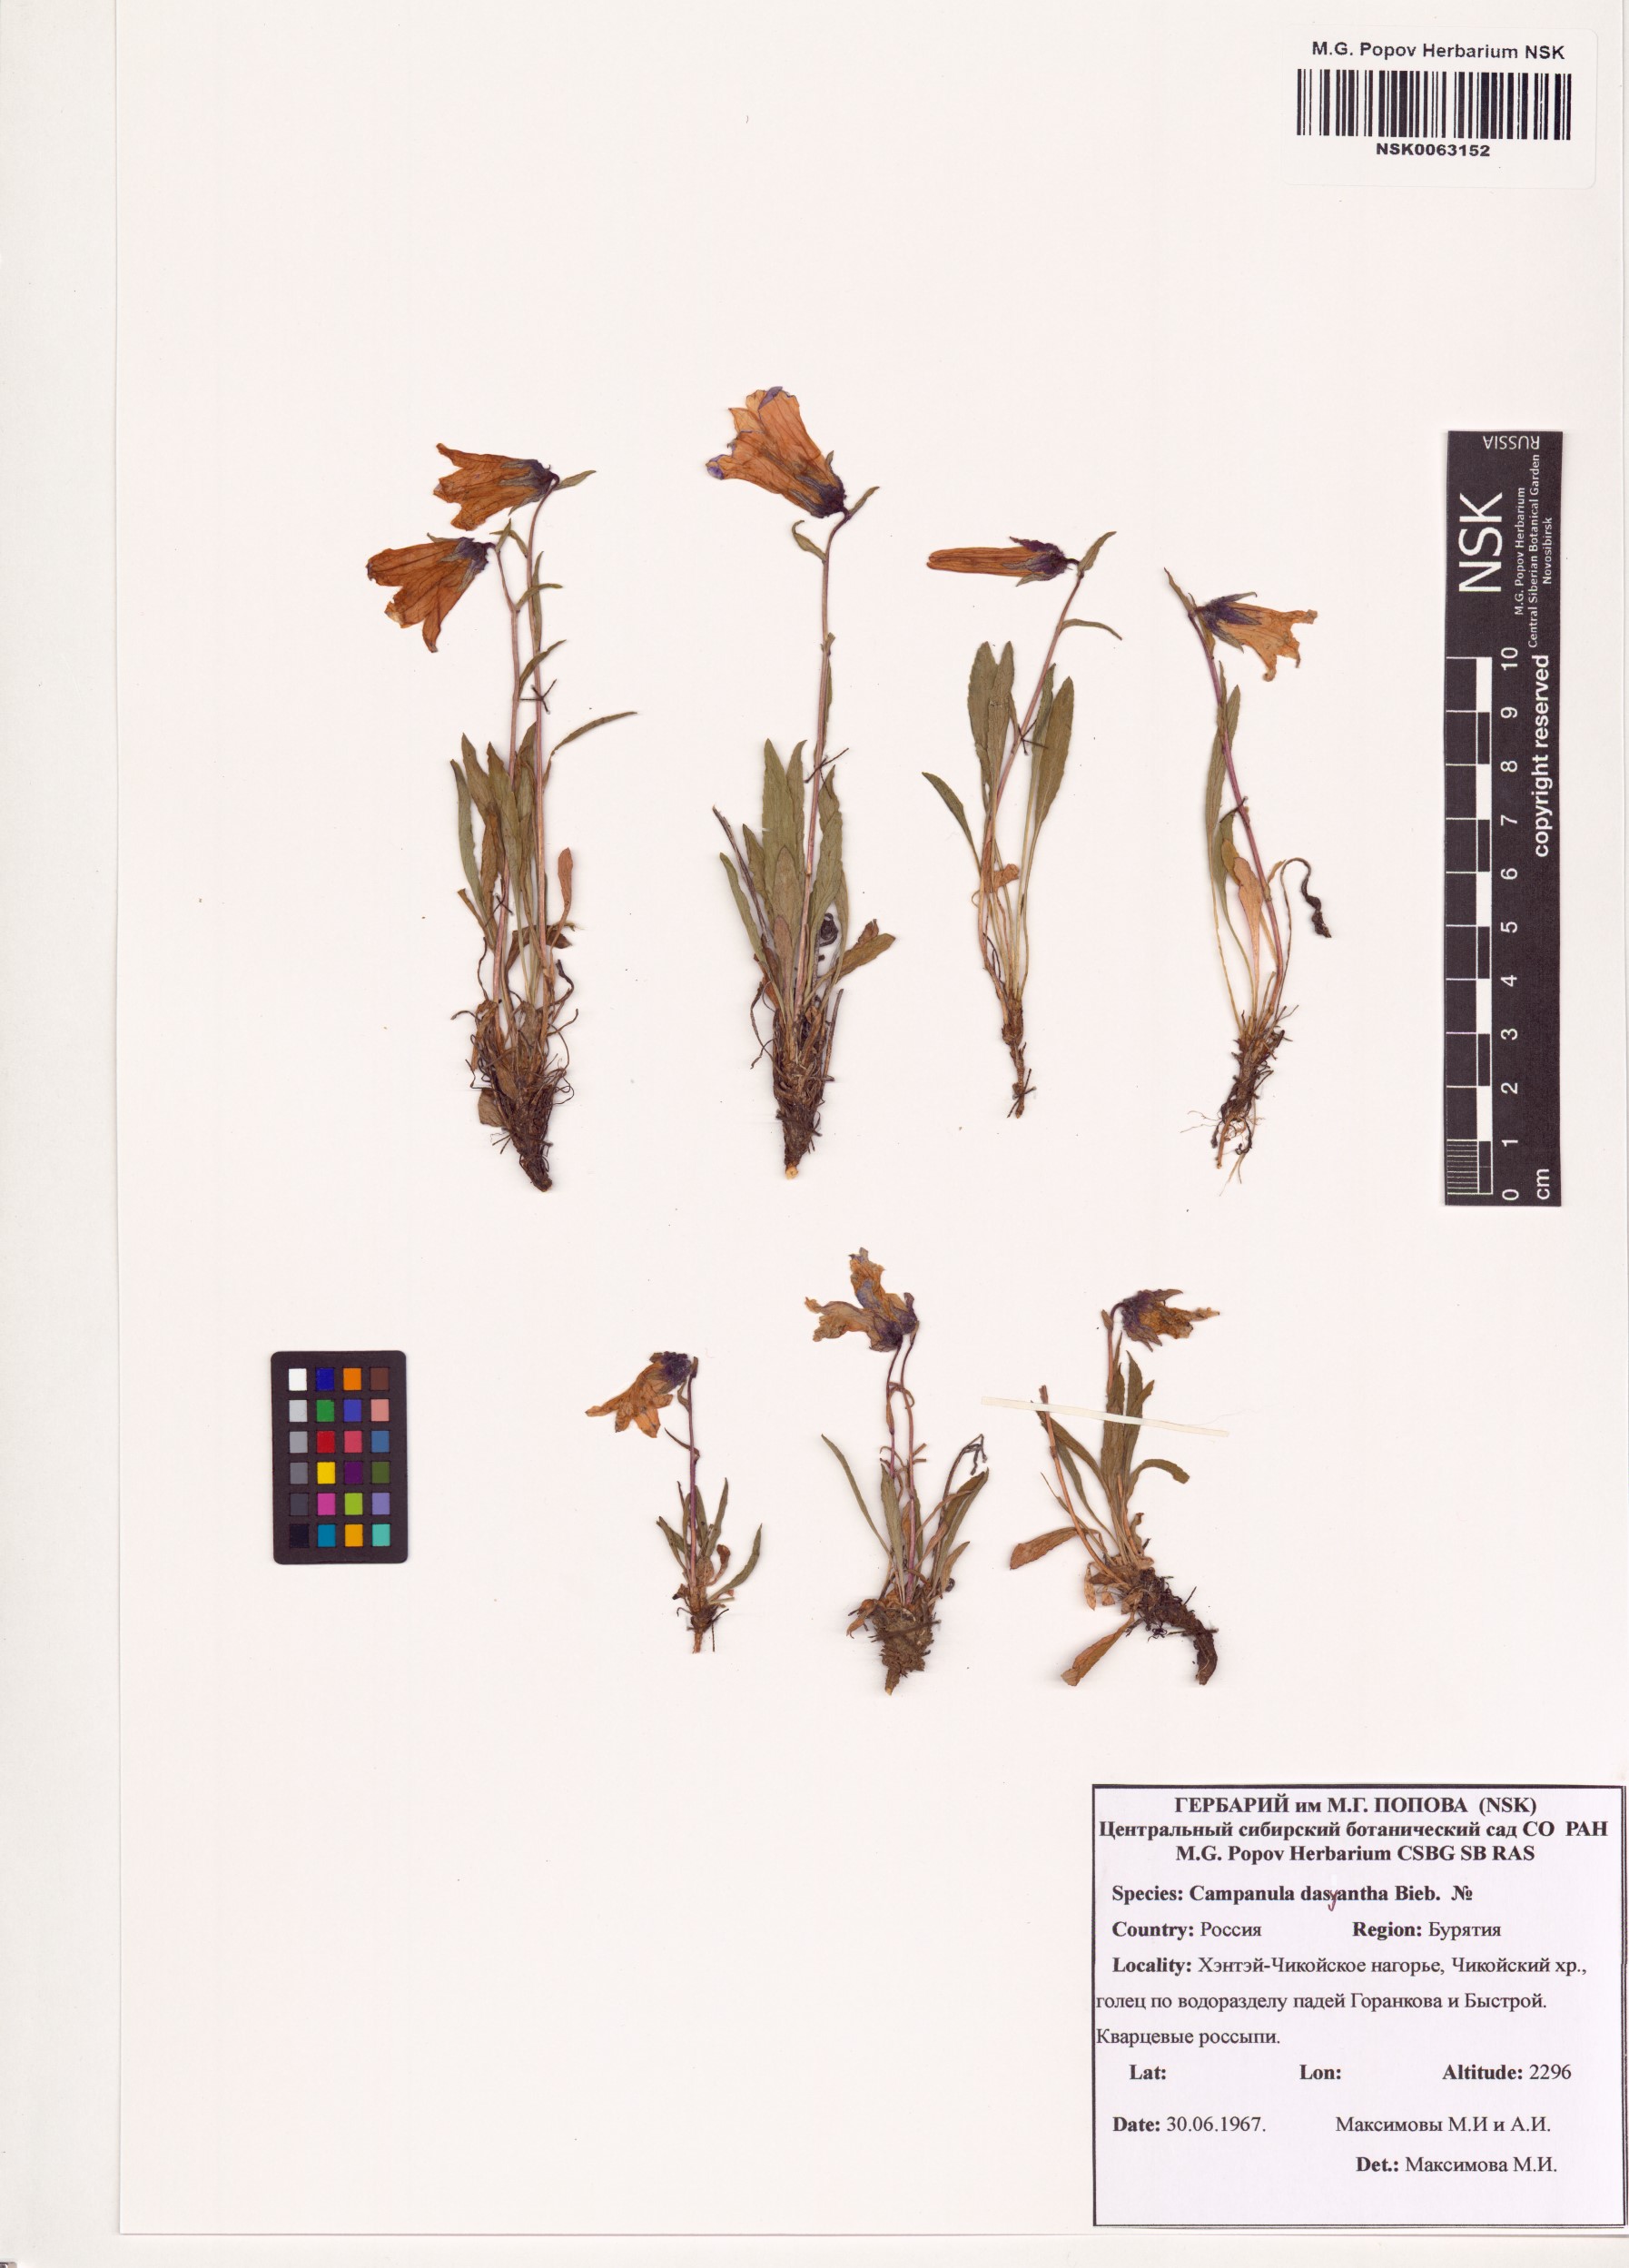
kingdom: Plantae
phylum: Tracheophyta
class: Magnoliopsida
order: Asterales
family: Campanulaceae
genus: Campanula
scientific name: Campanula dasyantha
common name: Hairyflower bellflower
